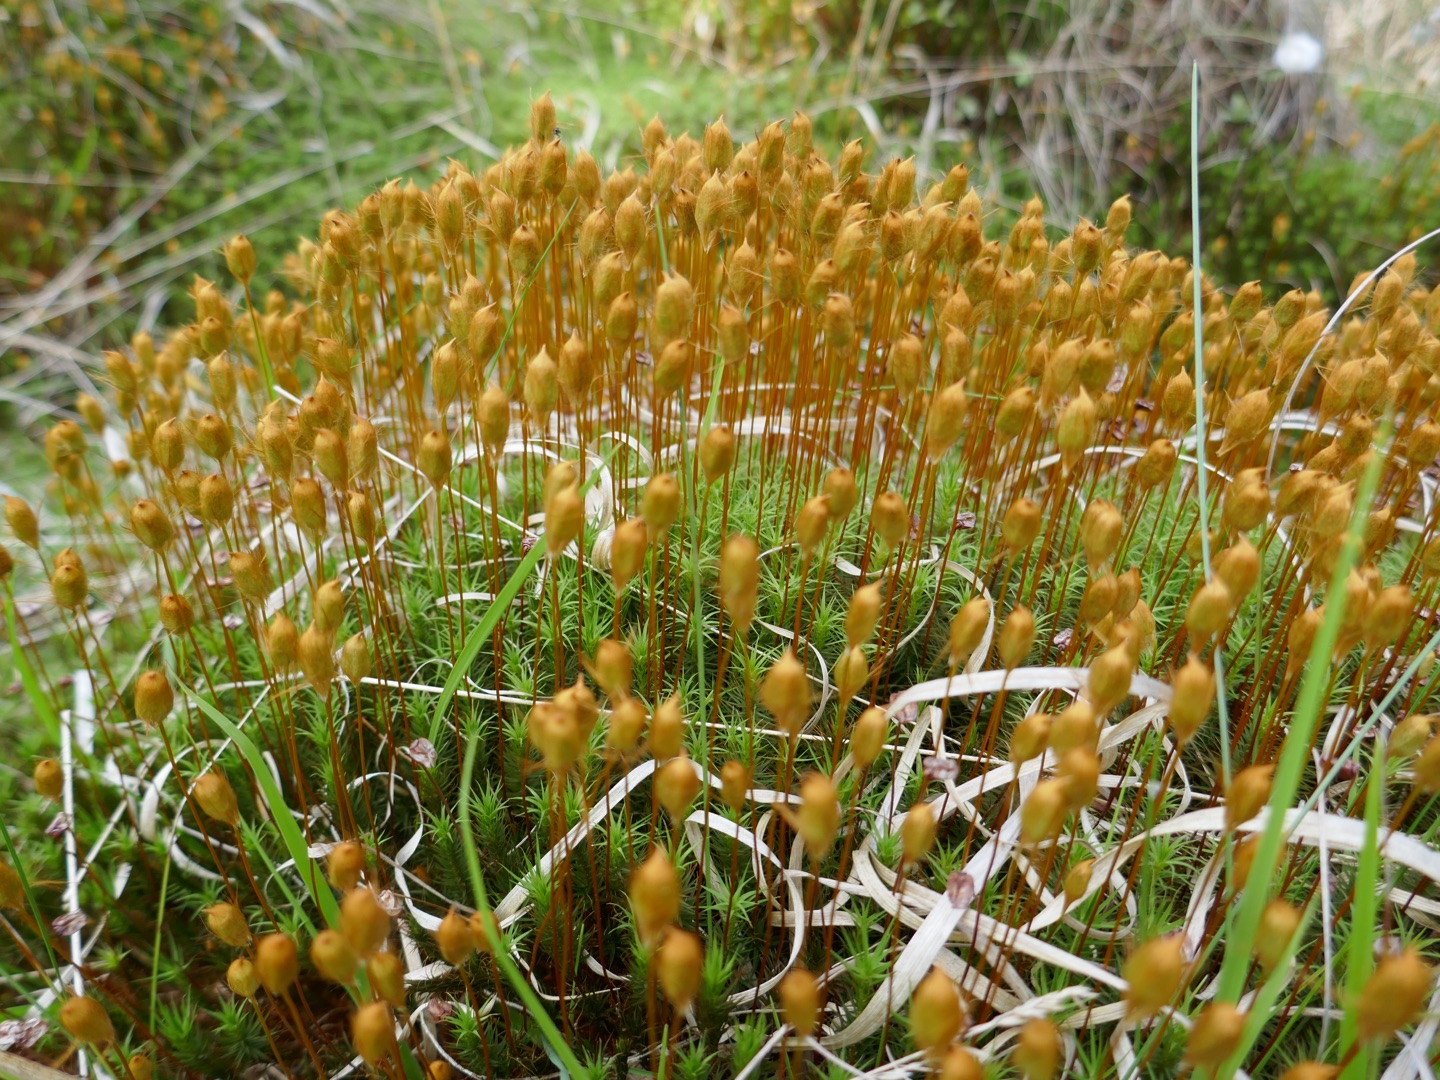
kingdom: Plantae
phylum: Bryophyta
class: Polytrichopsida
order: Polytrichales
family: Polytrichaceae
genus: Polytrichum
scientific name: Polytrichum commune
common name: Almindelig jomfruhår
